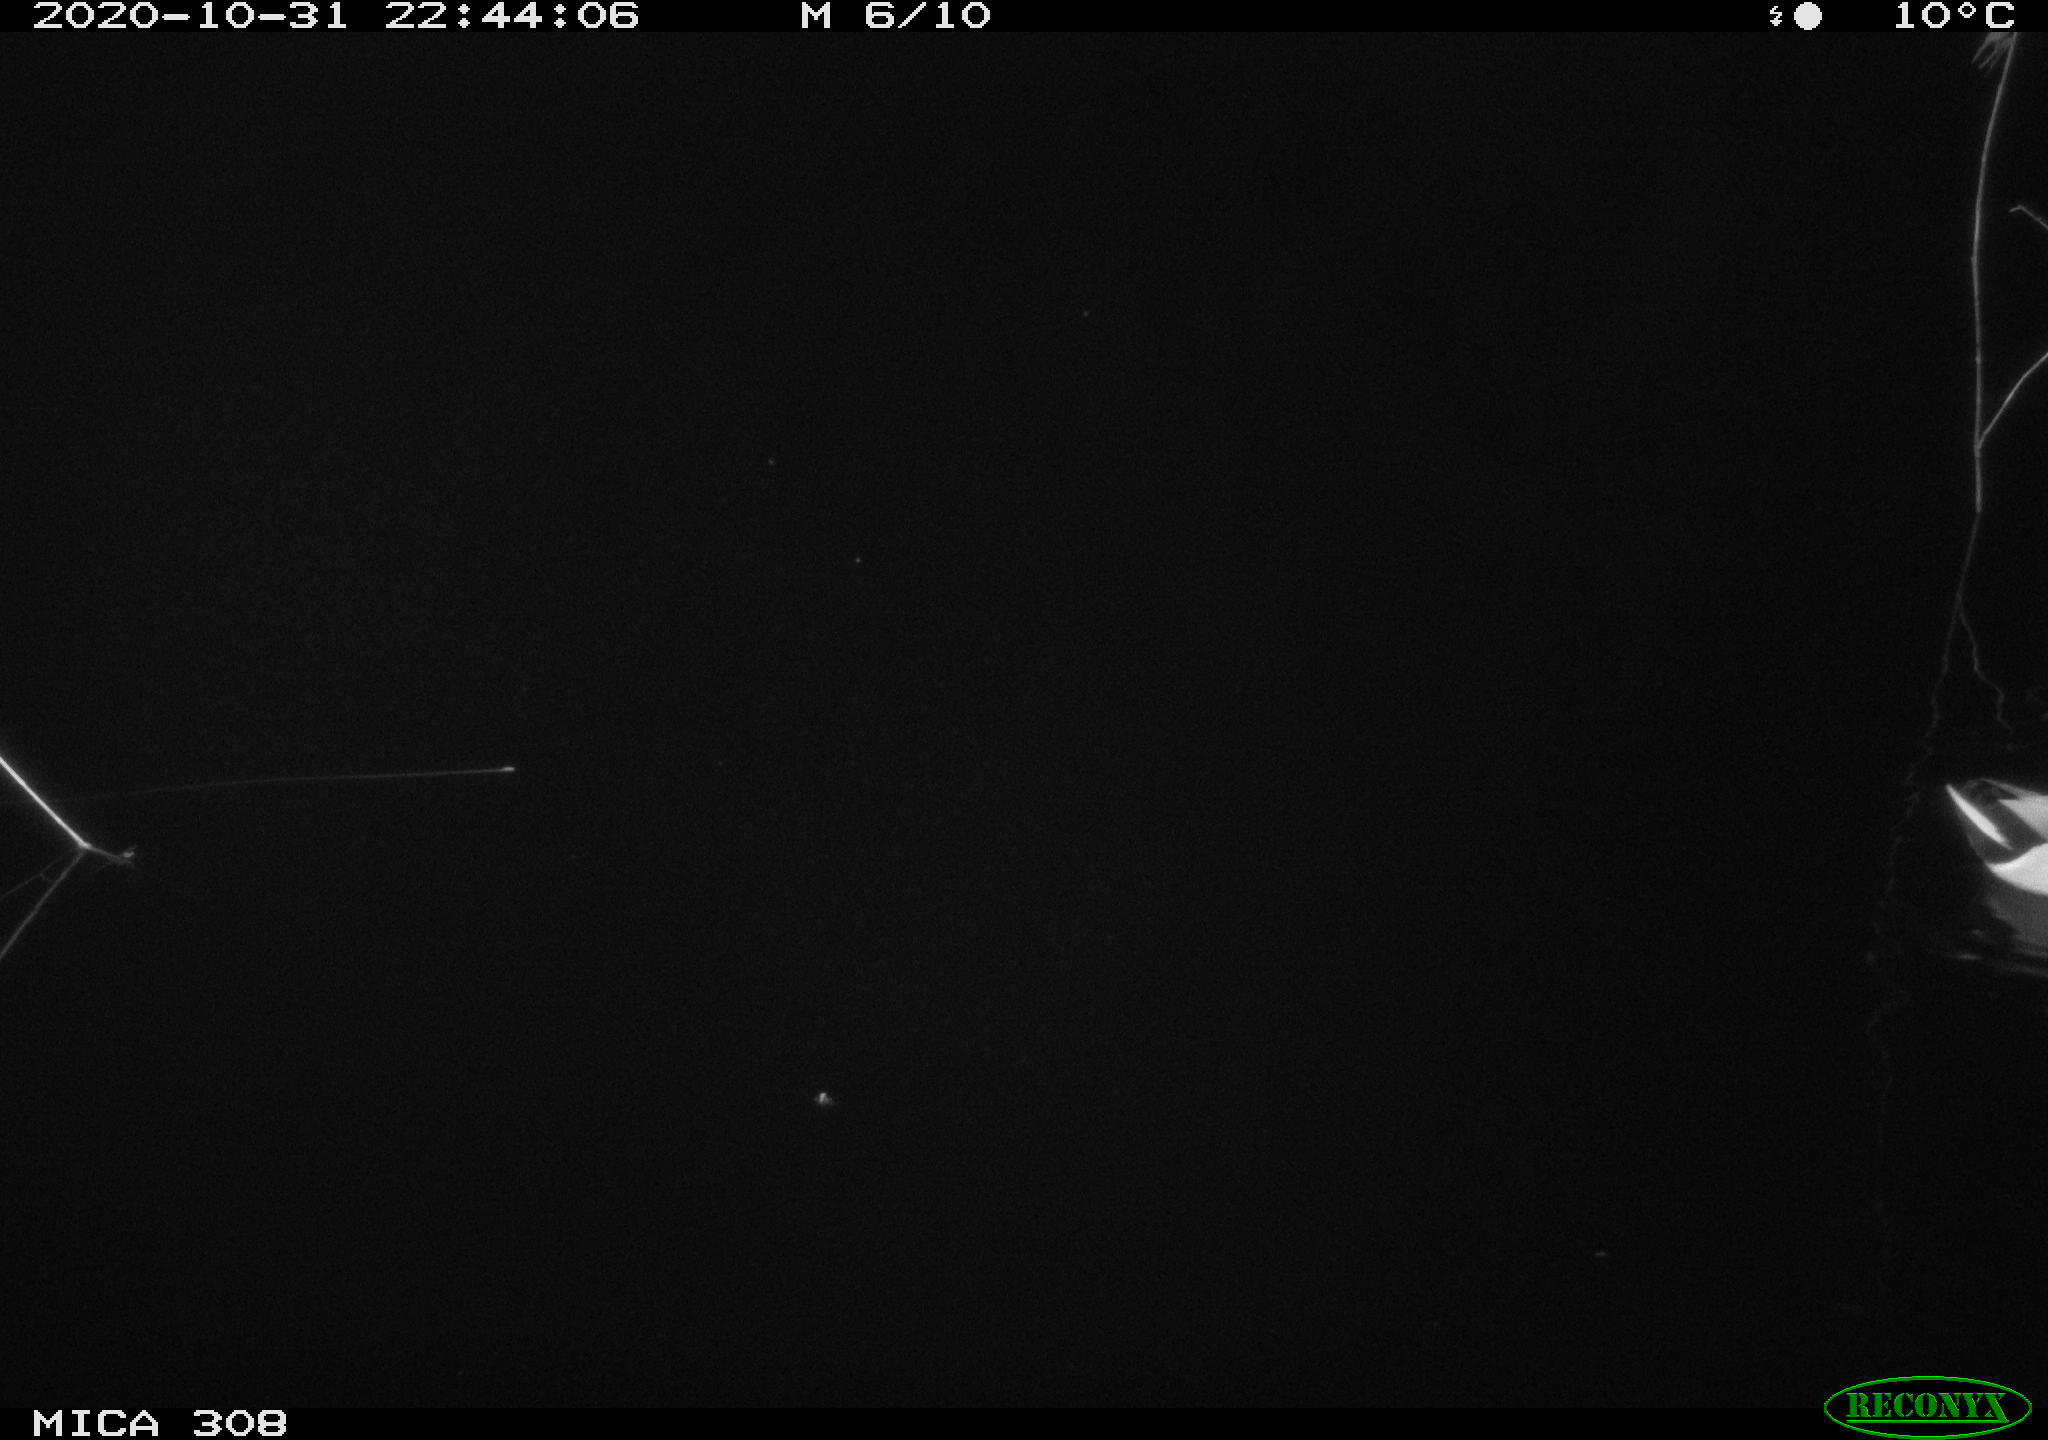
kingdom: Animalia
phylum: Chordata
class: Aves
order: Anseriformes
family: Anatidae
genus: Anas
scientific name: Anas platyrhynchos
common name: Mallard
